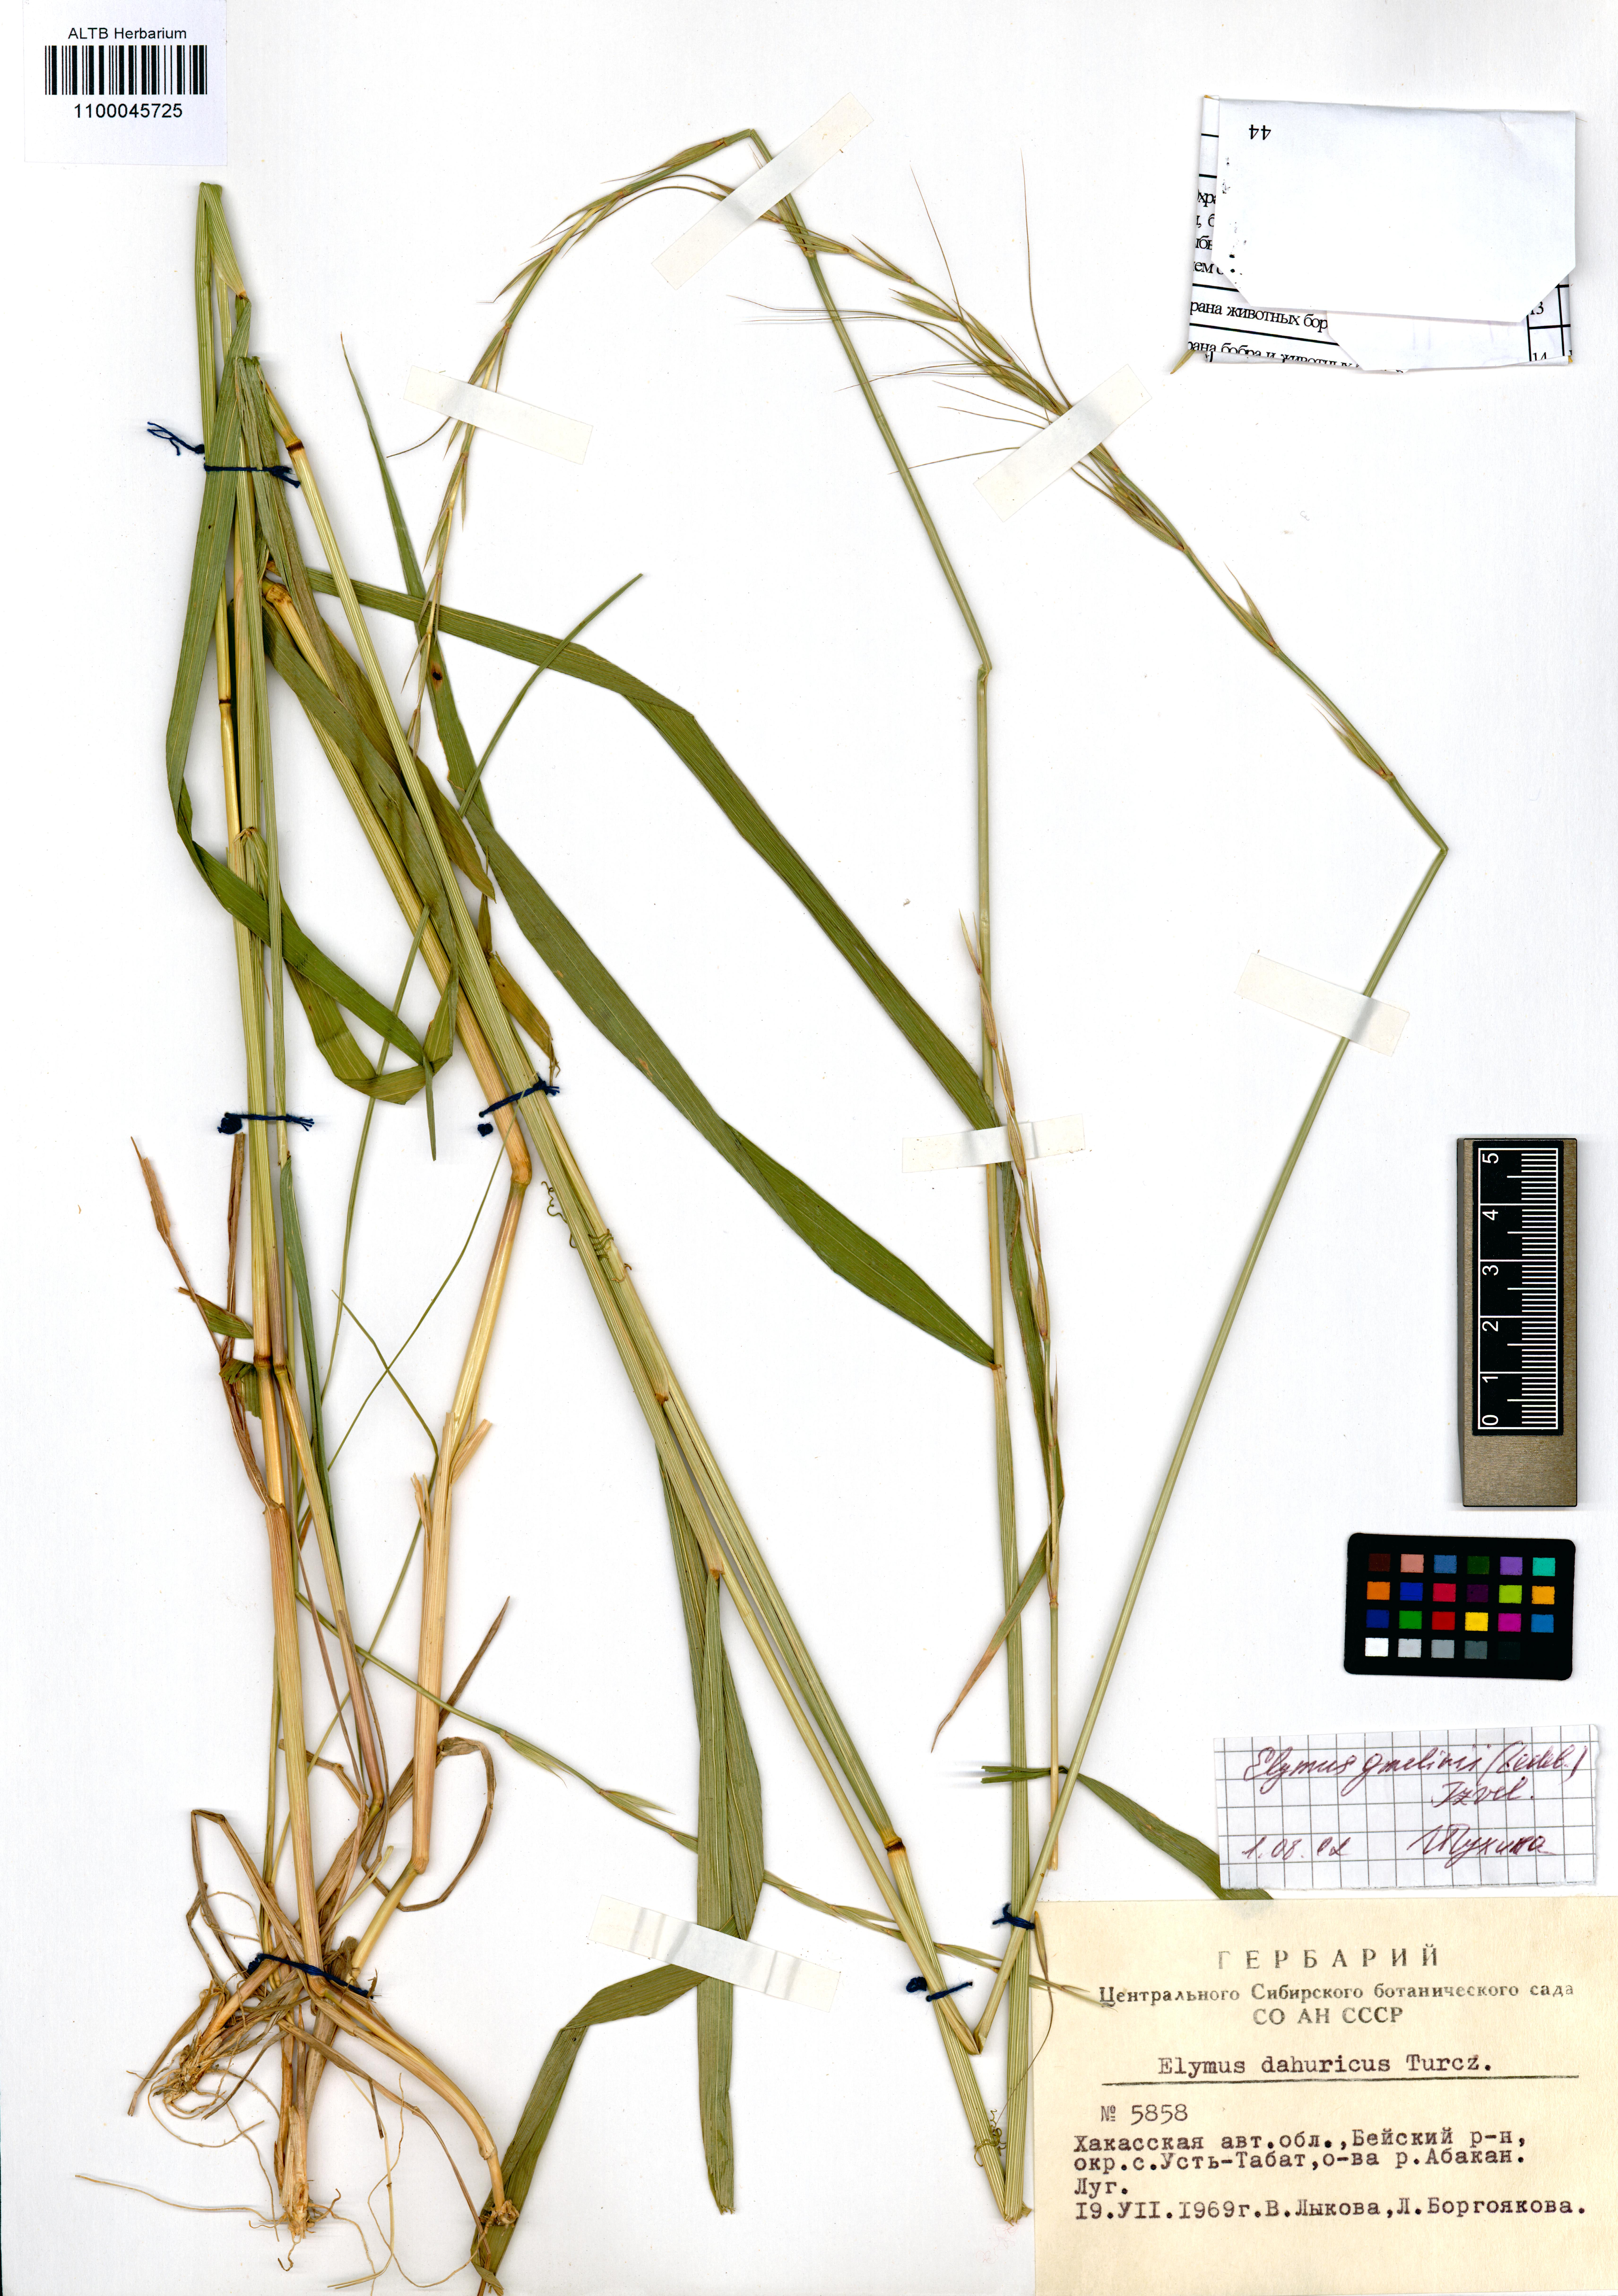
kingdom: Plantae
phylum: Tracheophyta
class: Liliopsida
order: Poales
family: Poaceae
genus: Elymus
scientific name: Elymus dahuricus
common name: Dahurian wild rye
